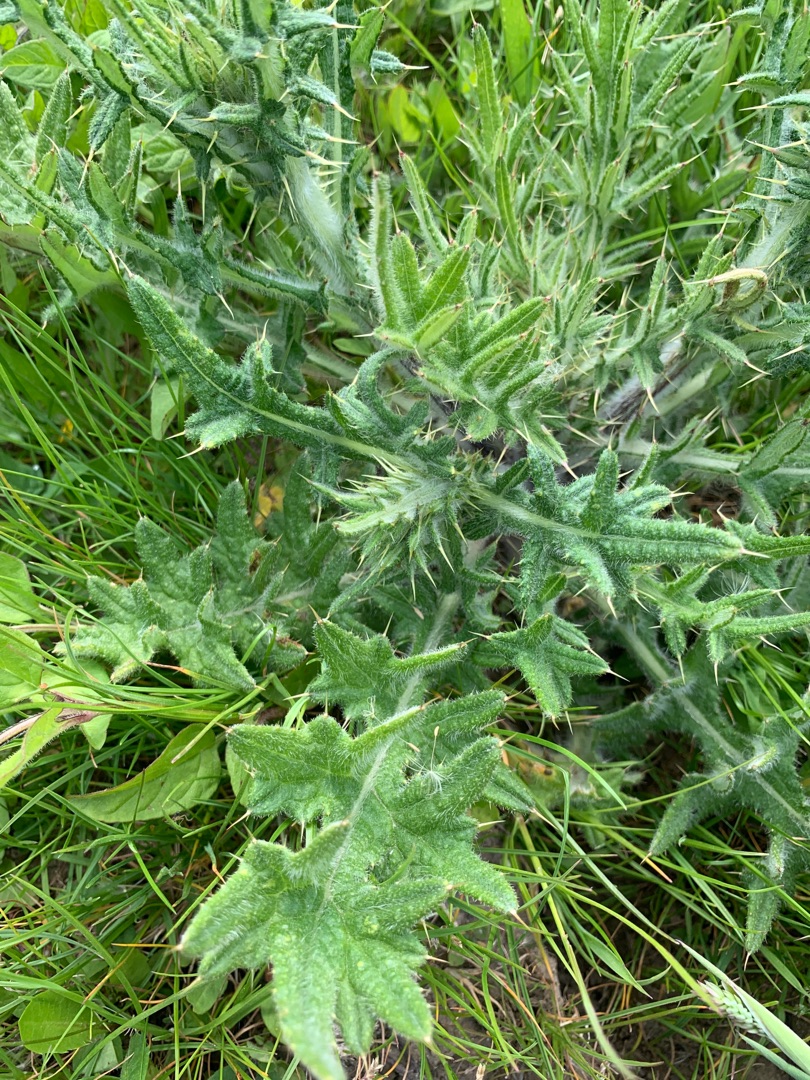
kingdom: Plantae
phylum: Tracheophyta
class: Magnoliopsida
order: Asterales
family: Asteraceae
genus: Cirsium
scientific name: Cirsium vulgare
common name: Horse-tidsel
